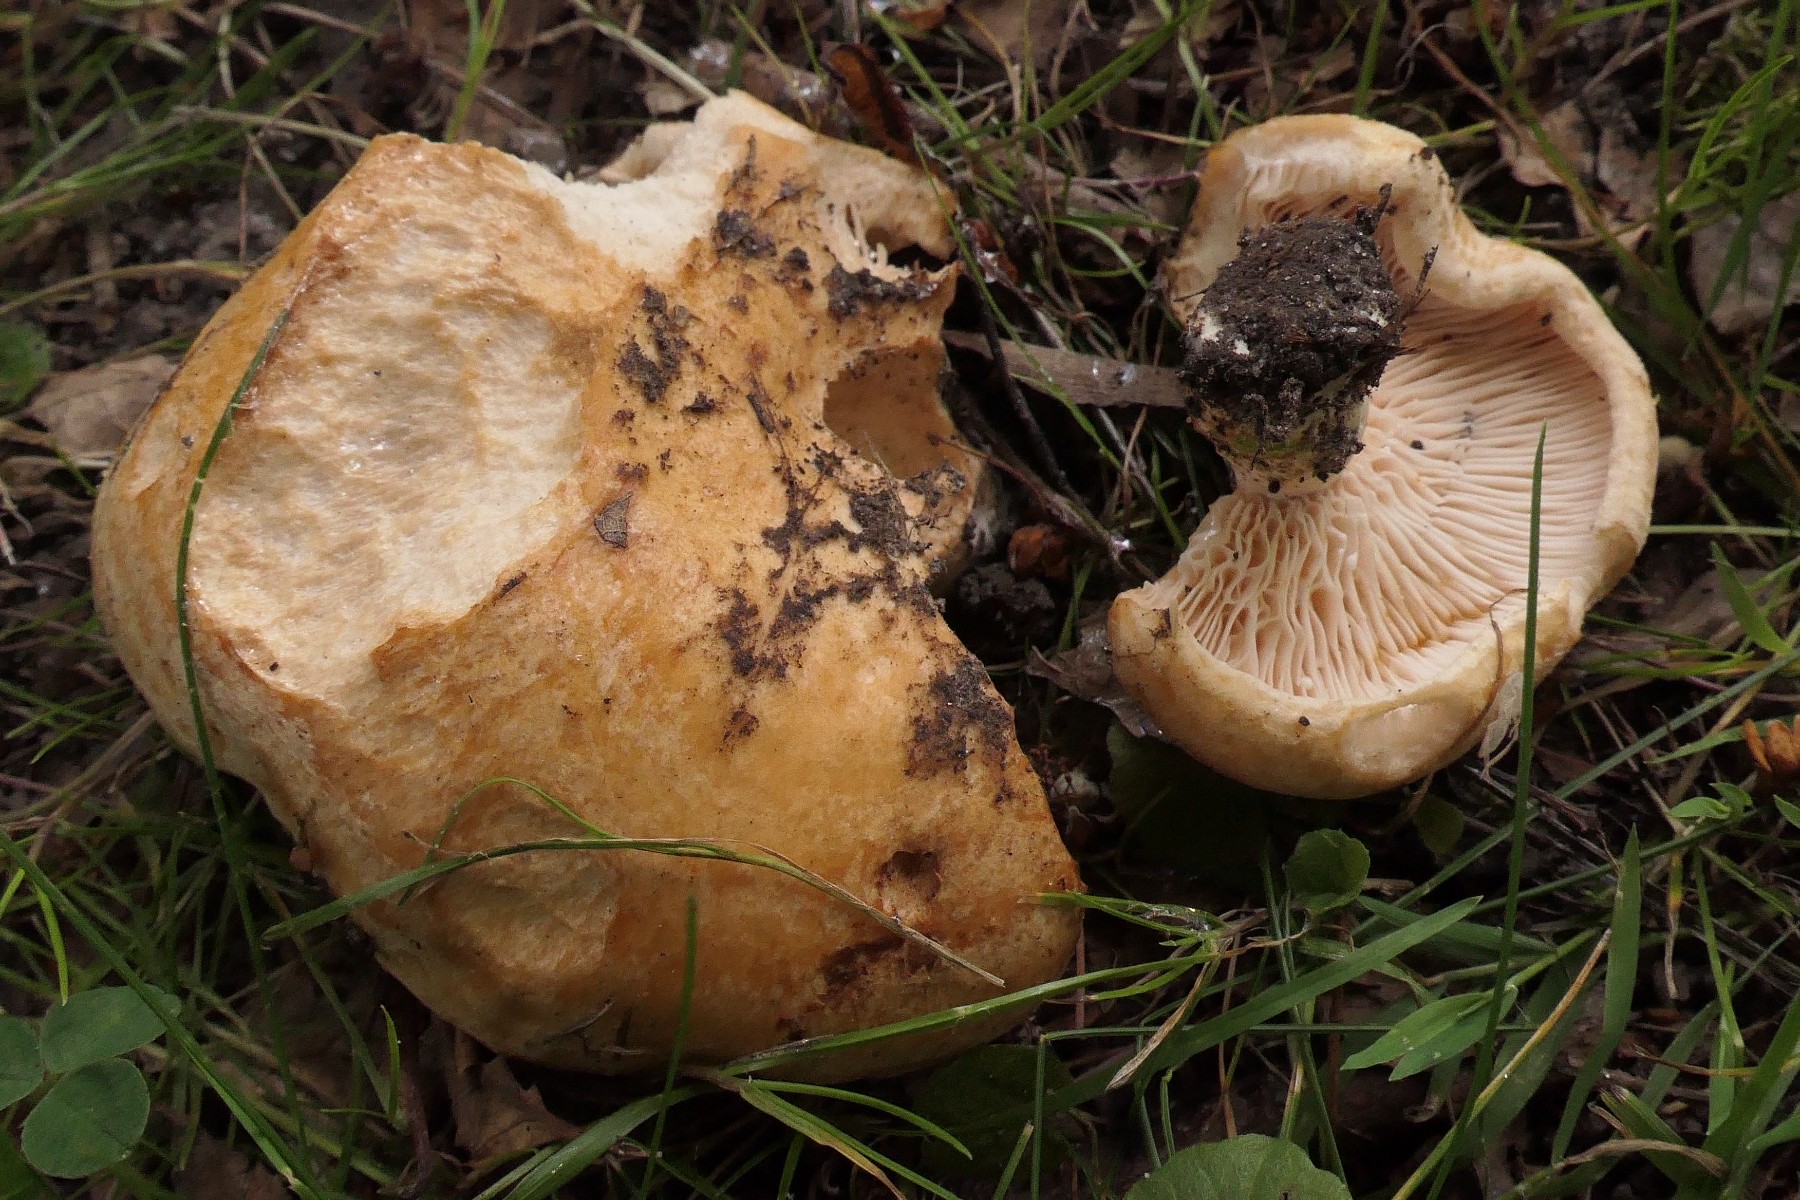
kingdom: Fungi
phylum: Basidiomycota
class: Agaricomycetes
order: Russulales
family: Russulaceae
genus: Lactarius
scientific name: Lactarius acerrimus
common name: brændende mælkehat
